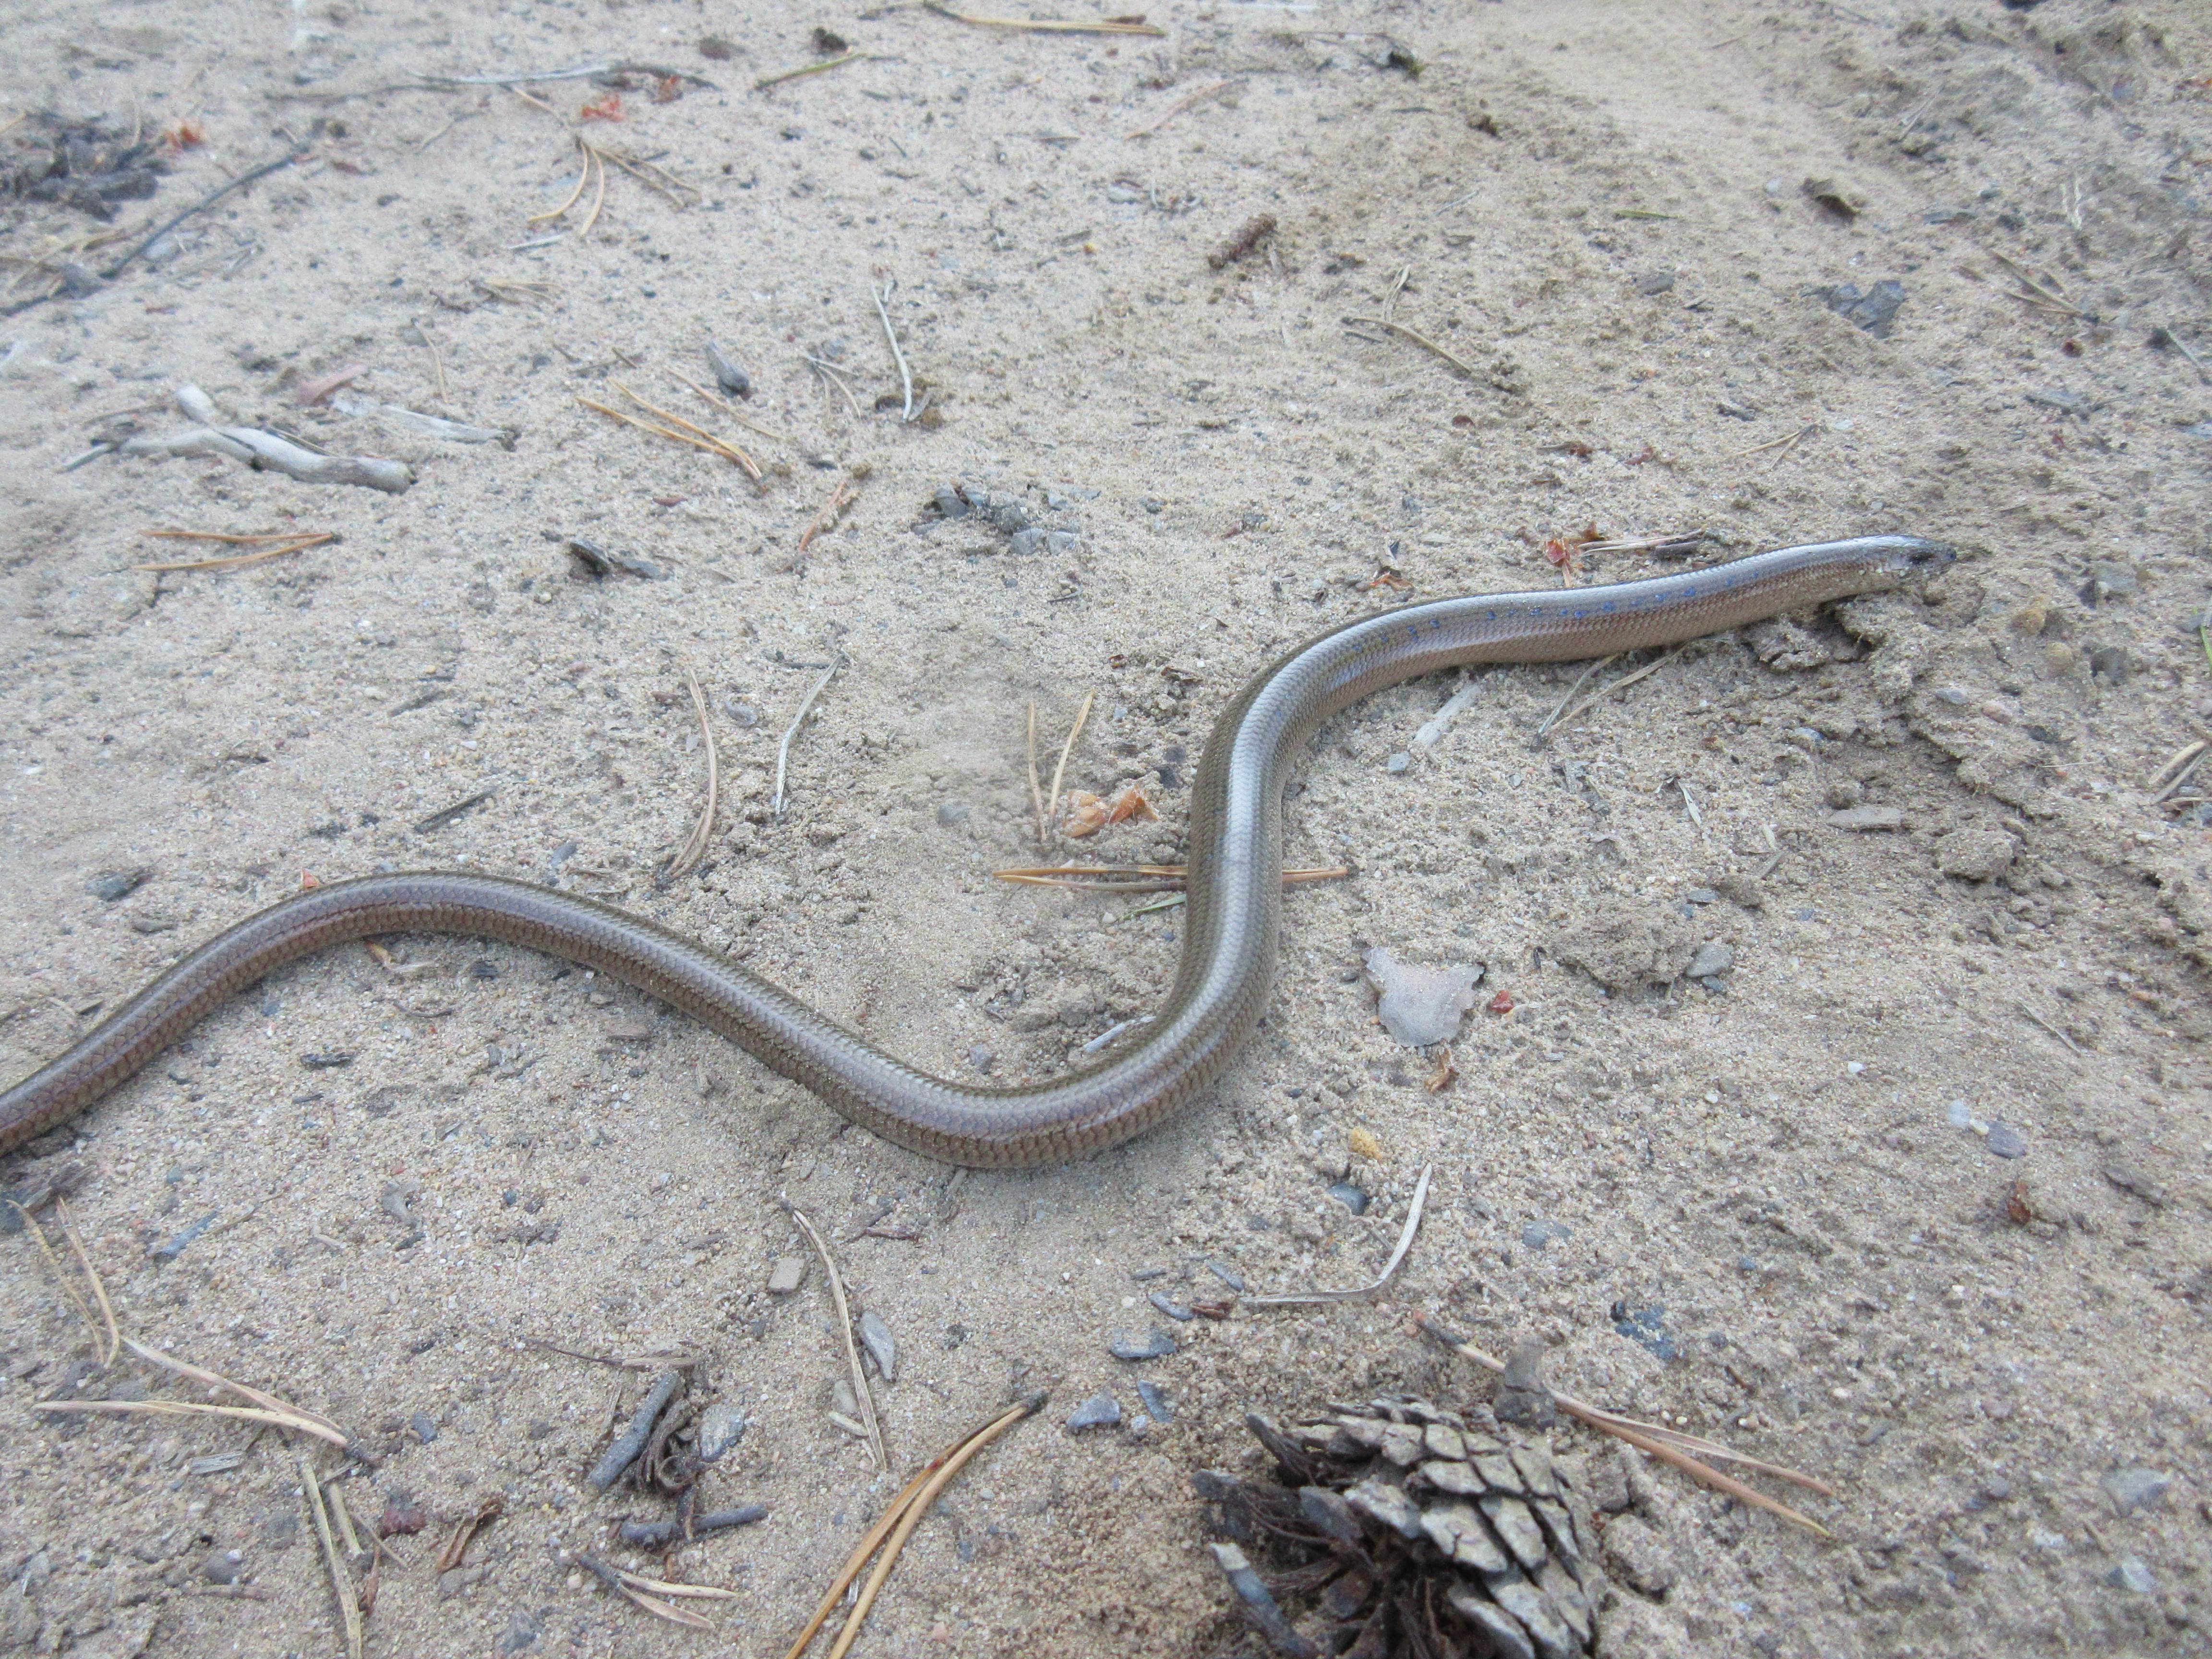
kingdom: Animalia
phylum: Chordata
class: Squamata
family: Anguidae
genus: Anguis
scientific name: Anguis colchica
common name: Slow worm
